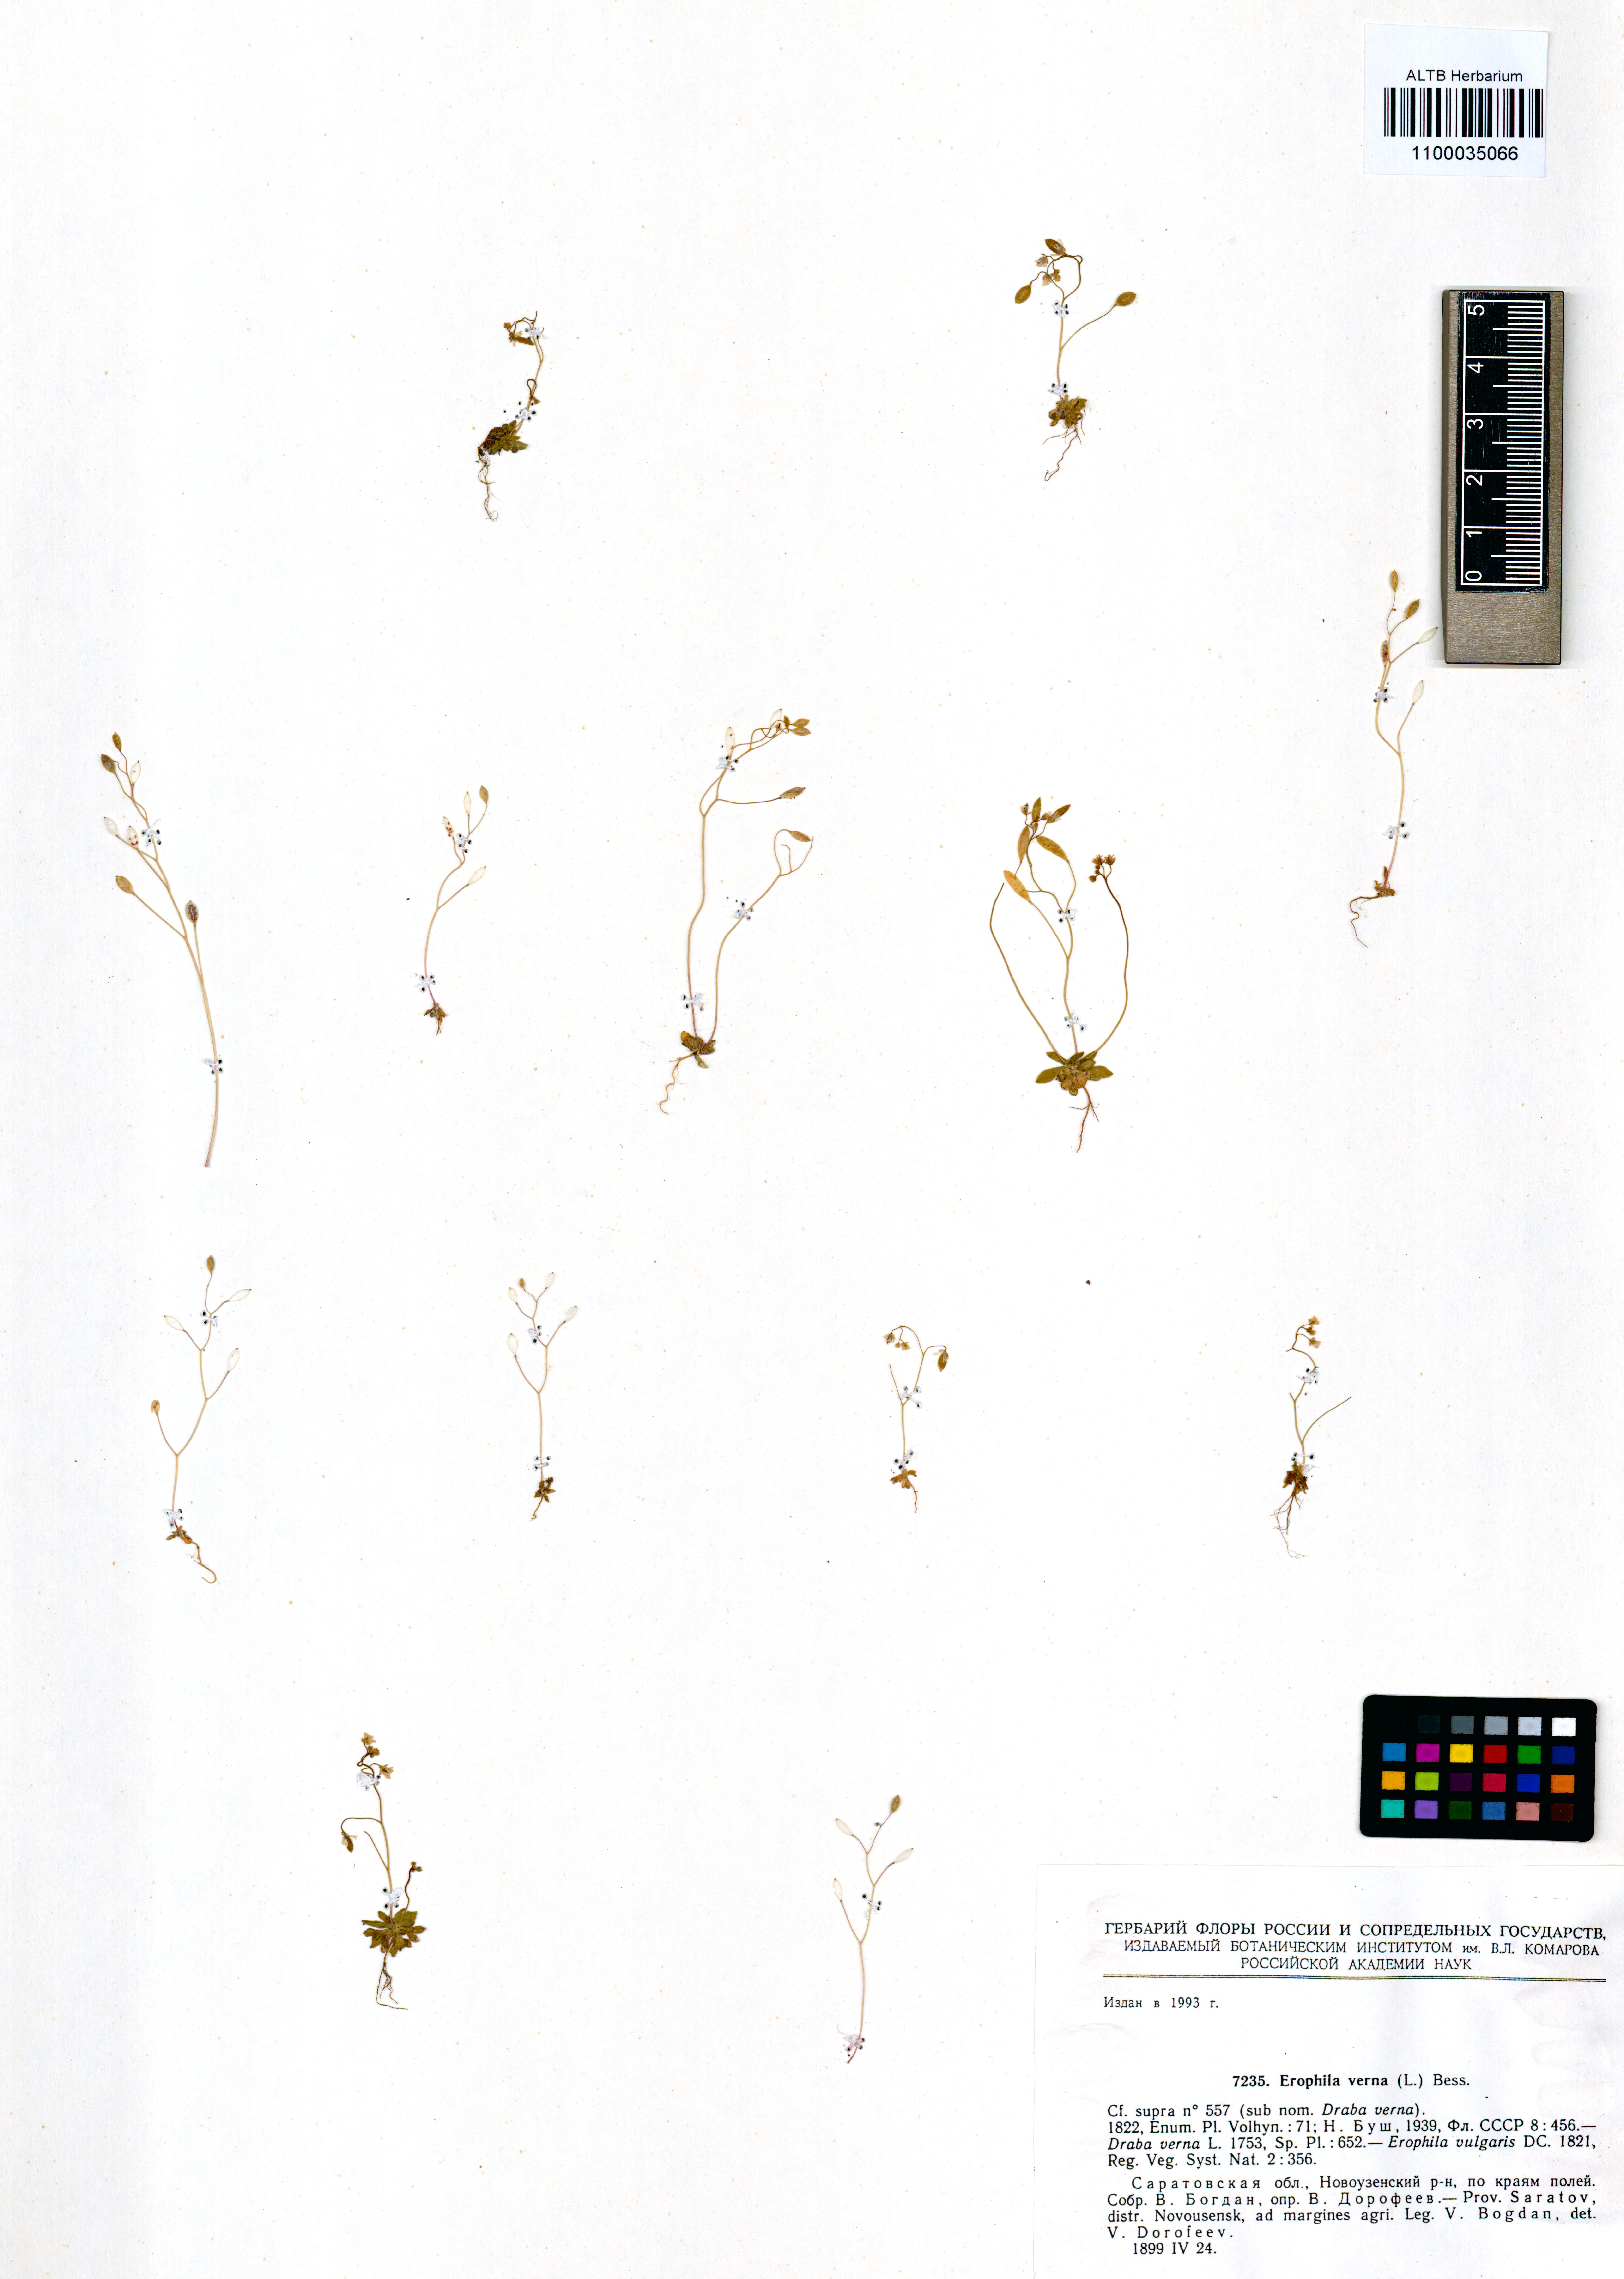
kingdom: Plantae
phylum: Tracheophyta
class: Magnoliopsida
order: Brassicales
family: Brassicaceae
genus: Draba
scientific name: Draba verna
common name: Spring draba
